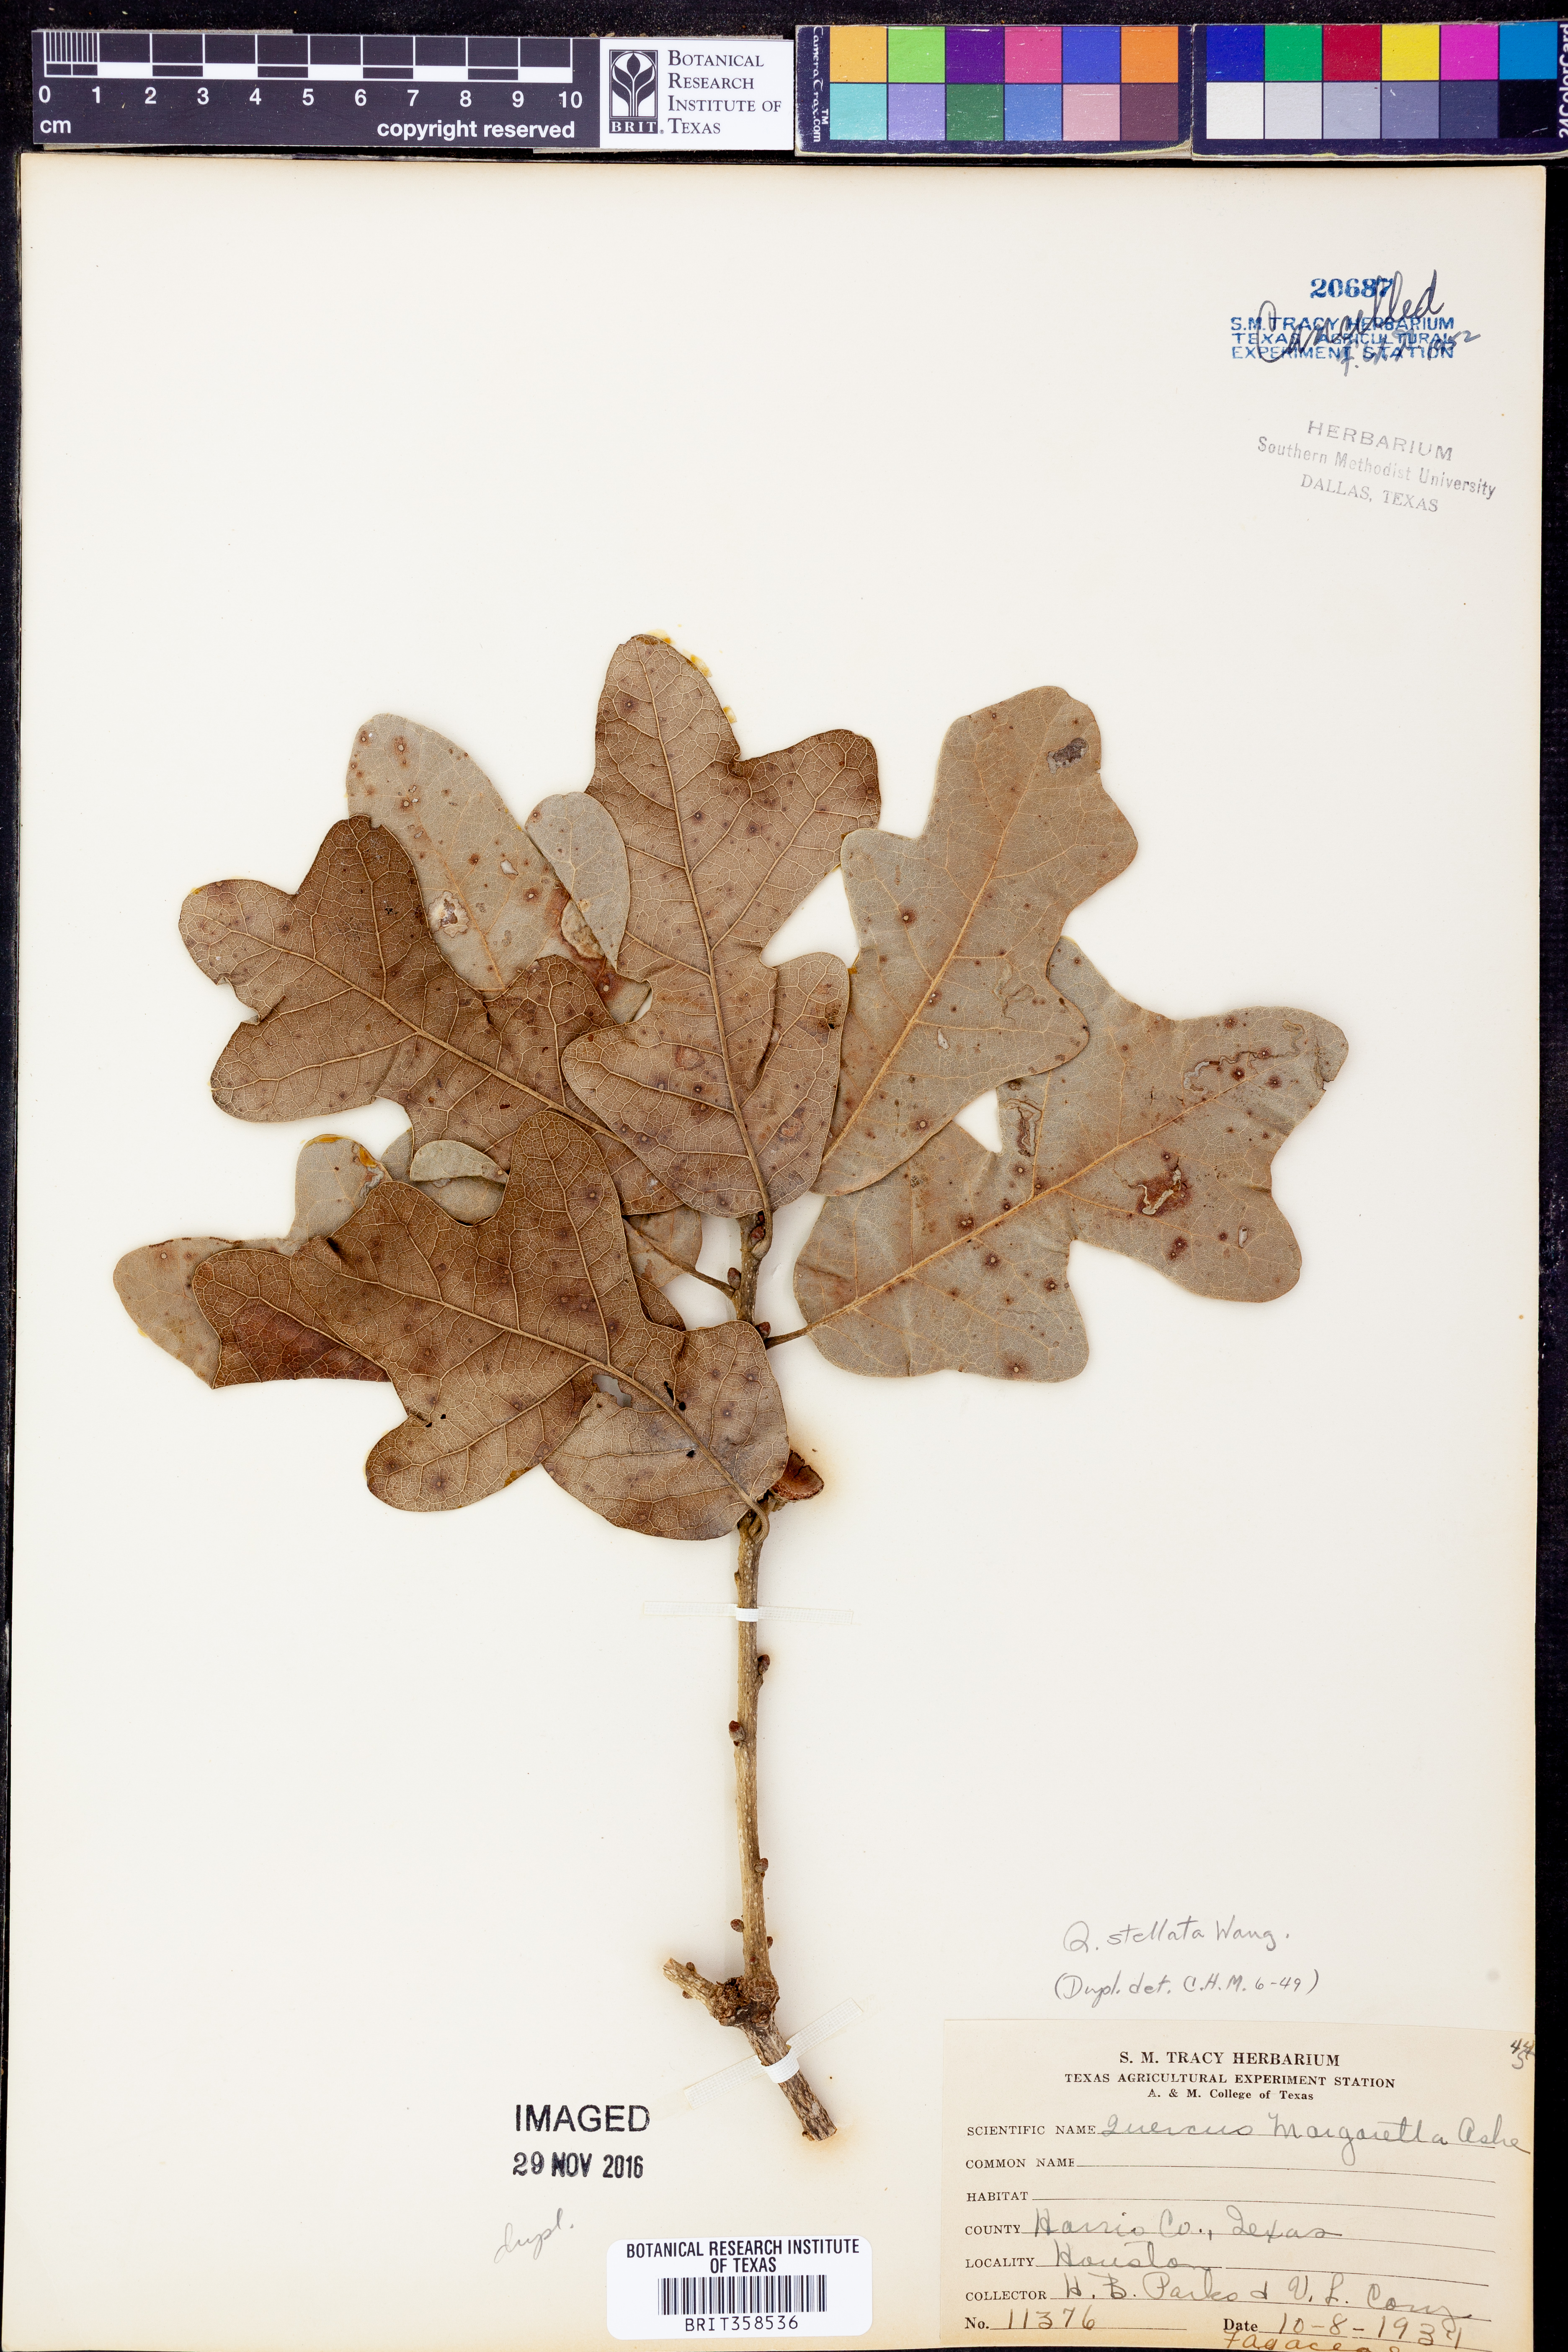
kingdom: Plantae
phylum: Tracheophyta
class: Magnoliopsida
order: Fagales
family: Fagaceae
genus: Quercus
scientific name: Quercus stellata
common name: Post oak
